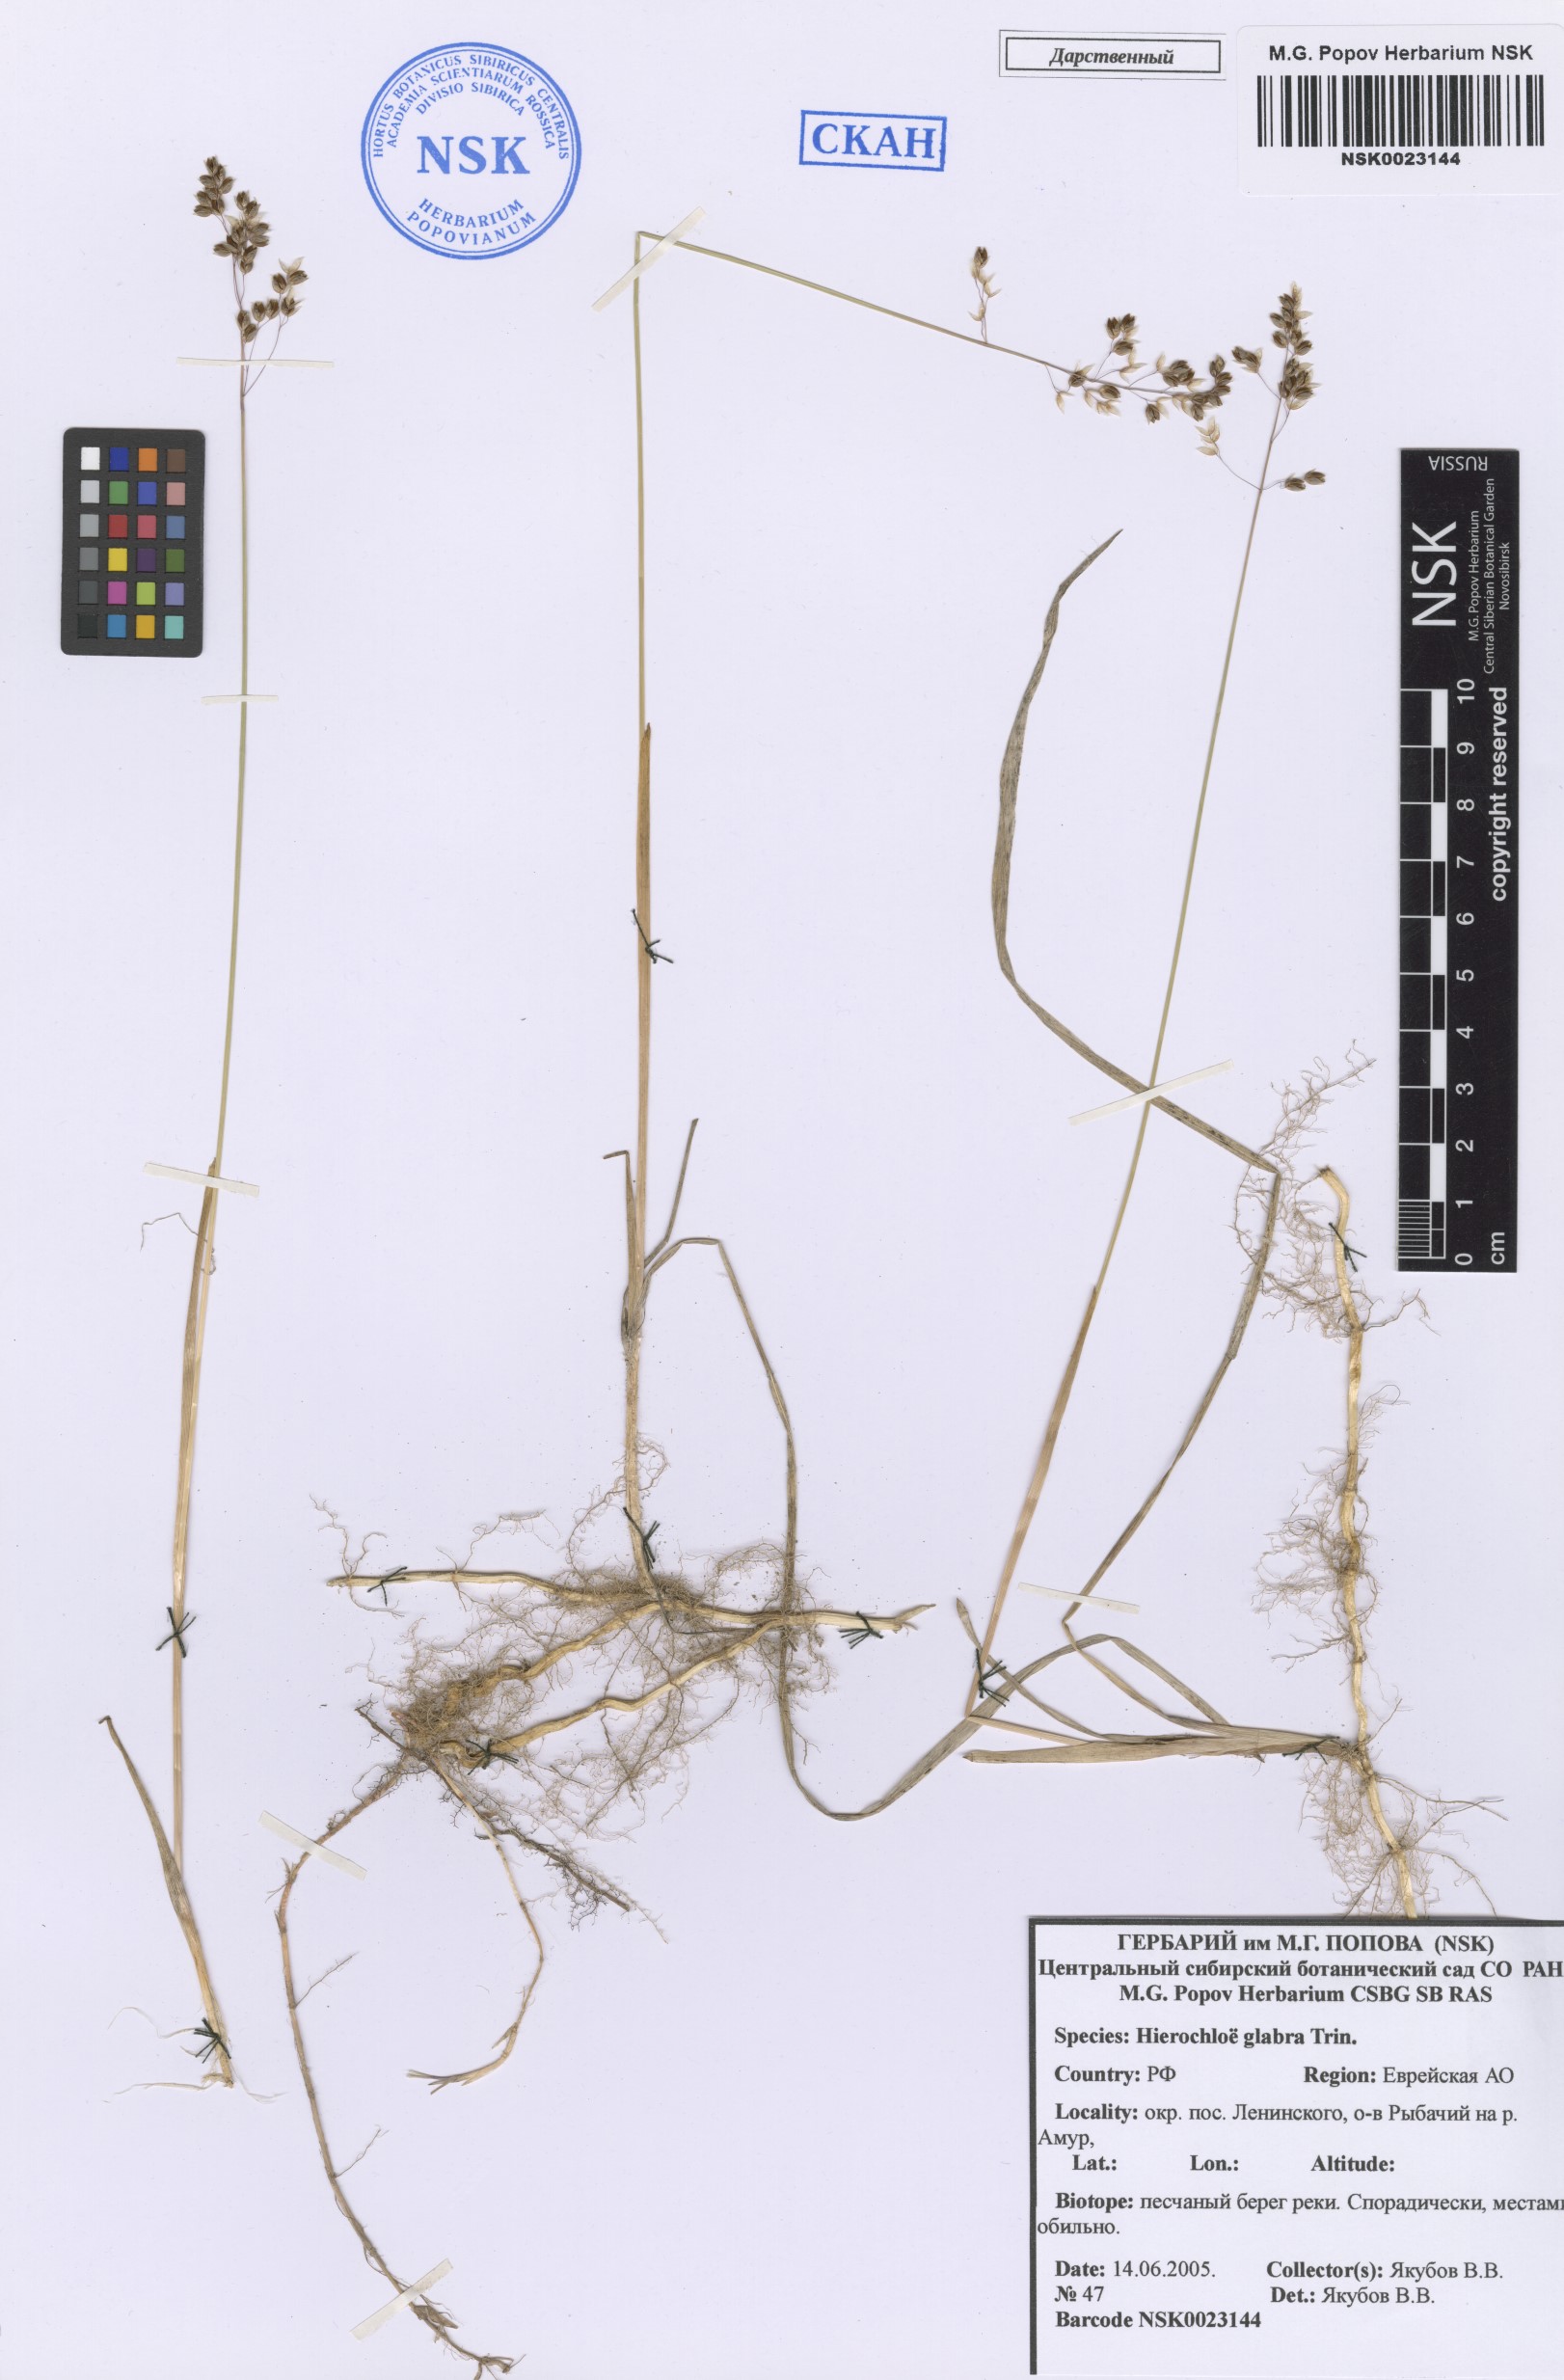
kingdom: Plantae
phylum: Tracheophyta
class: Liliopsida
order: Poales
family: Poaceae
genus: Anthoxanthum
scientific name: Anthoxanthum glabrum
